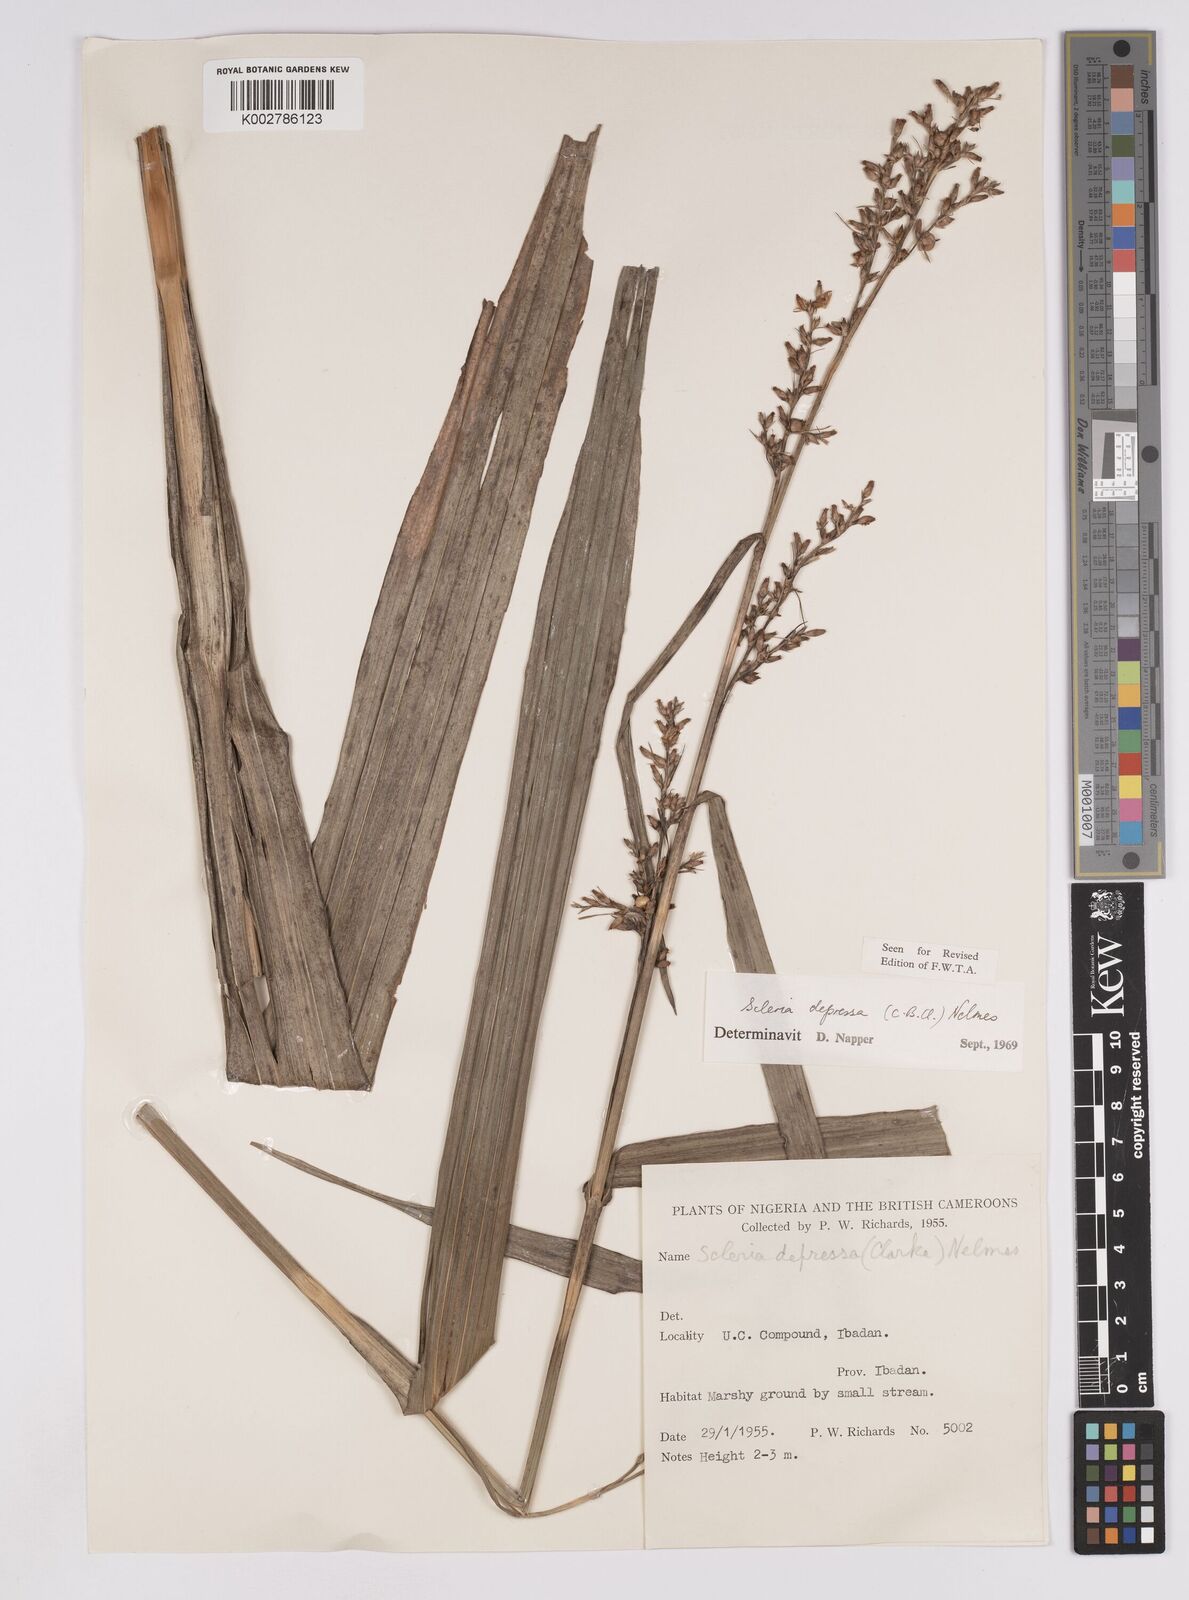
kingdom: Plantae
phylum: Tracheophyta
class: Liliopsida
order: Poales
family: Cyperaceae
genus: Scleria
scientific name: Scleria depressa
